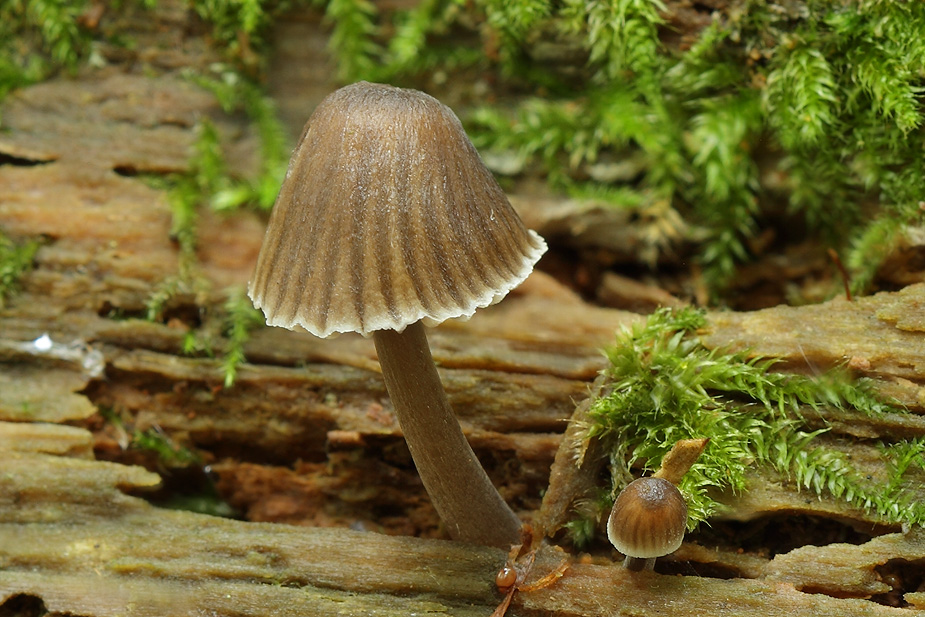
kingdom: Fungi
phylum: Basidiomycota
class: Agaricomycetes
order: Agaricales
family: Mycenaceae
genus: Mycena
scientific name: Mycena stipata
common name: stinkende huesvamp
